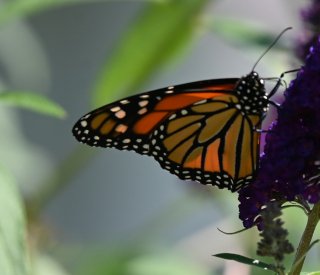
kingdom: Animalia
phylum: Arthropoda
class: Insecta
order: Lepidoptera
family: Nymphalidae
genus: Danaus
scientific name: Danaus plexippus
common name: Monarch
